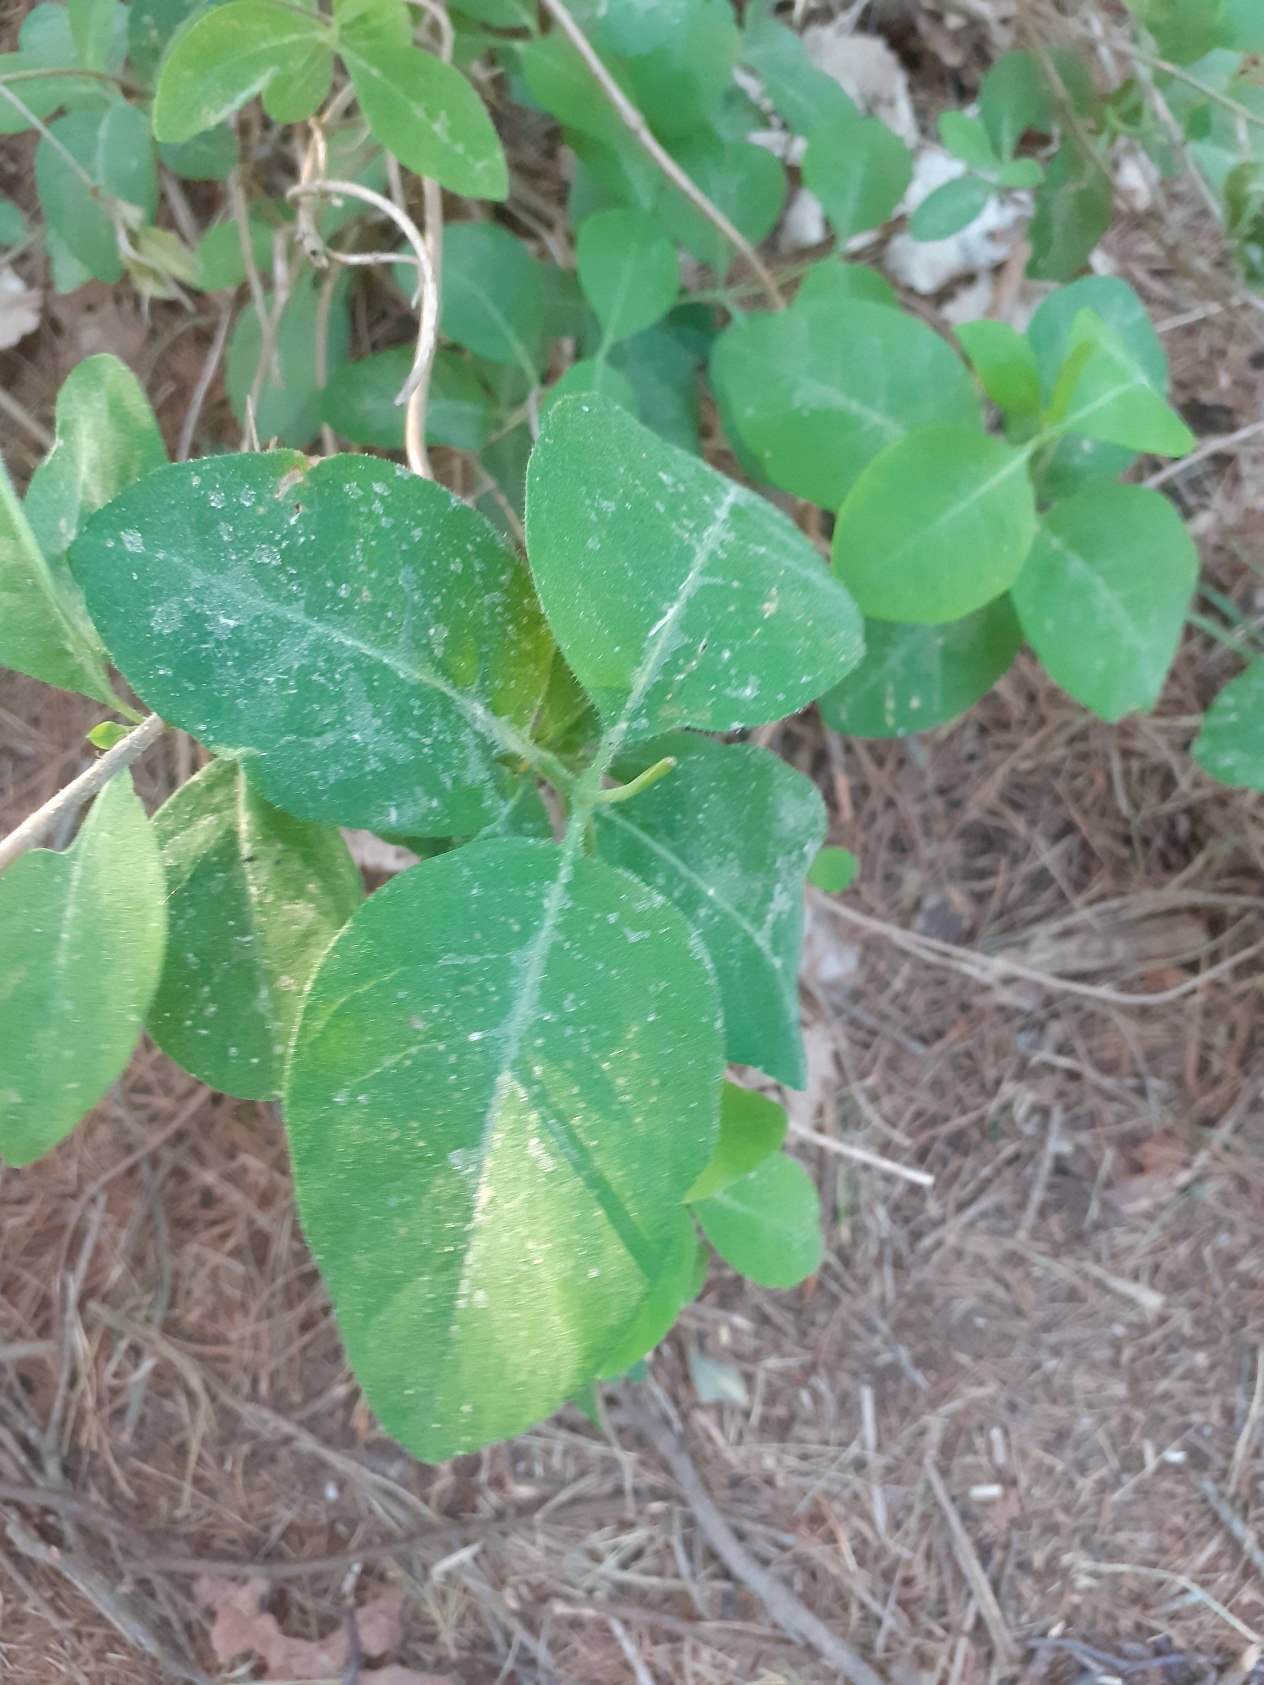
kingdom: Plantae
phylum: Tracheophyta
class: Magnoliopsida
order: Dipsacales
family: Caprifoliaceae
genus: Lonicera
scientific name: Lonicera periclymenum
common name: Almindelig gedeblad
